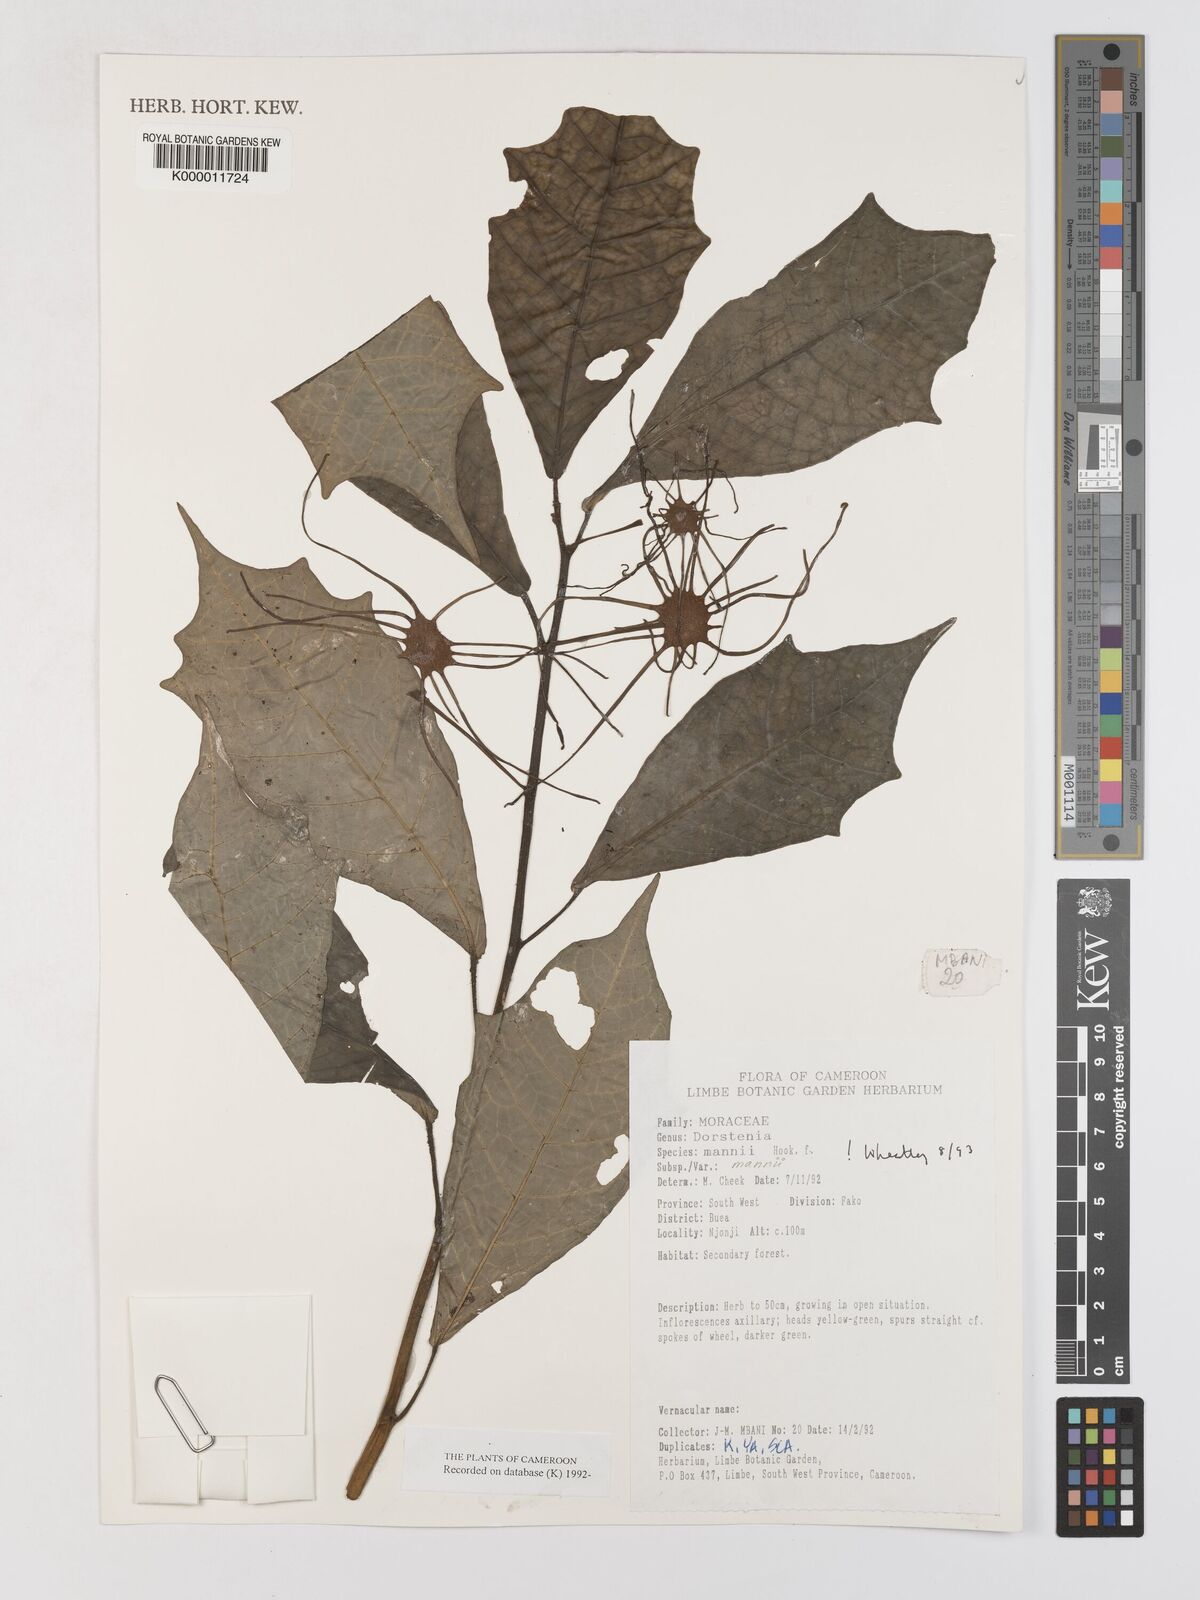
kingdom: Plantae
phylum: Tracheophyta
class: Magnoliopsida
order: Rosales
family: Moraceae
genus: Dorstenia
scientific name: Dorstenia mannii
